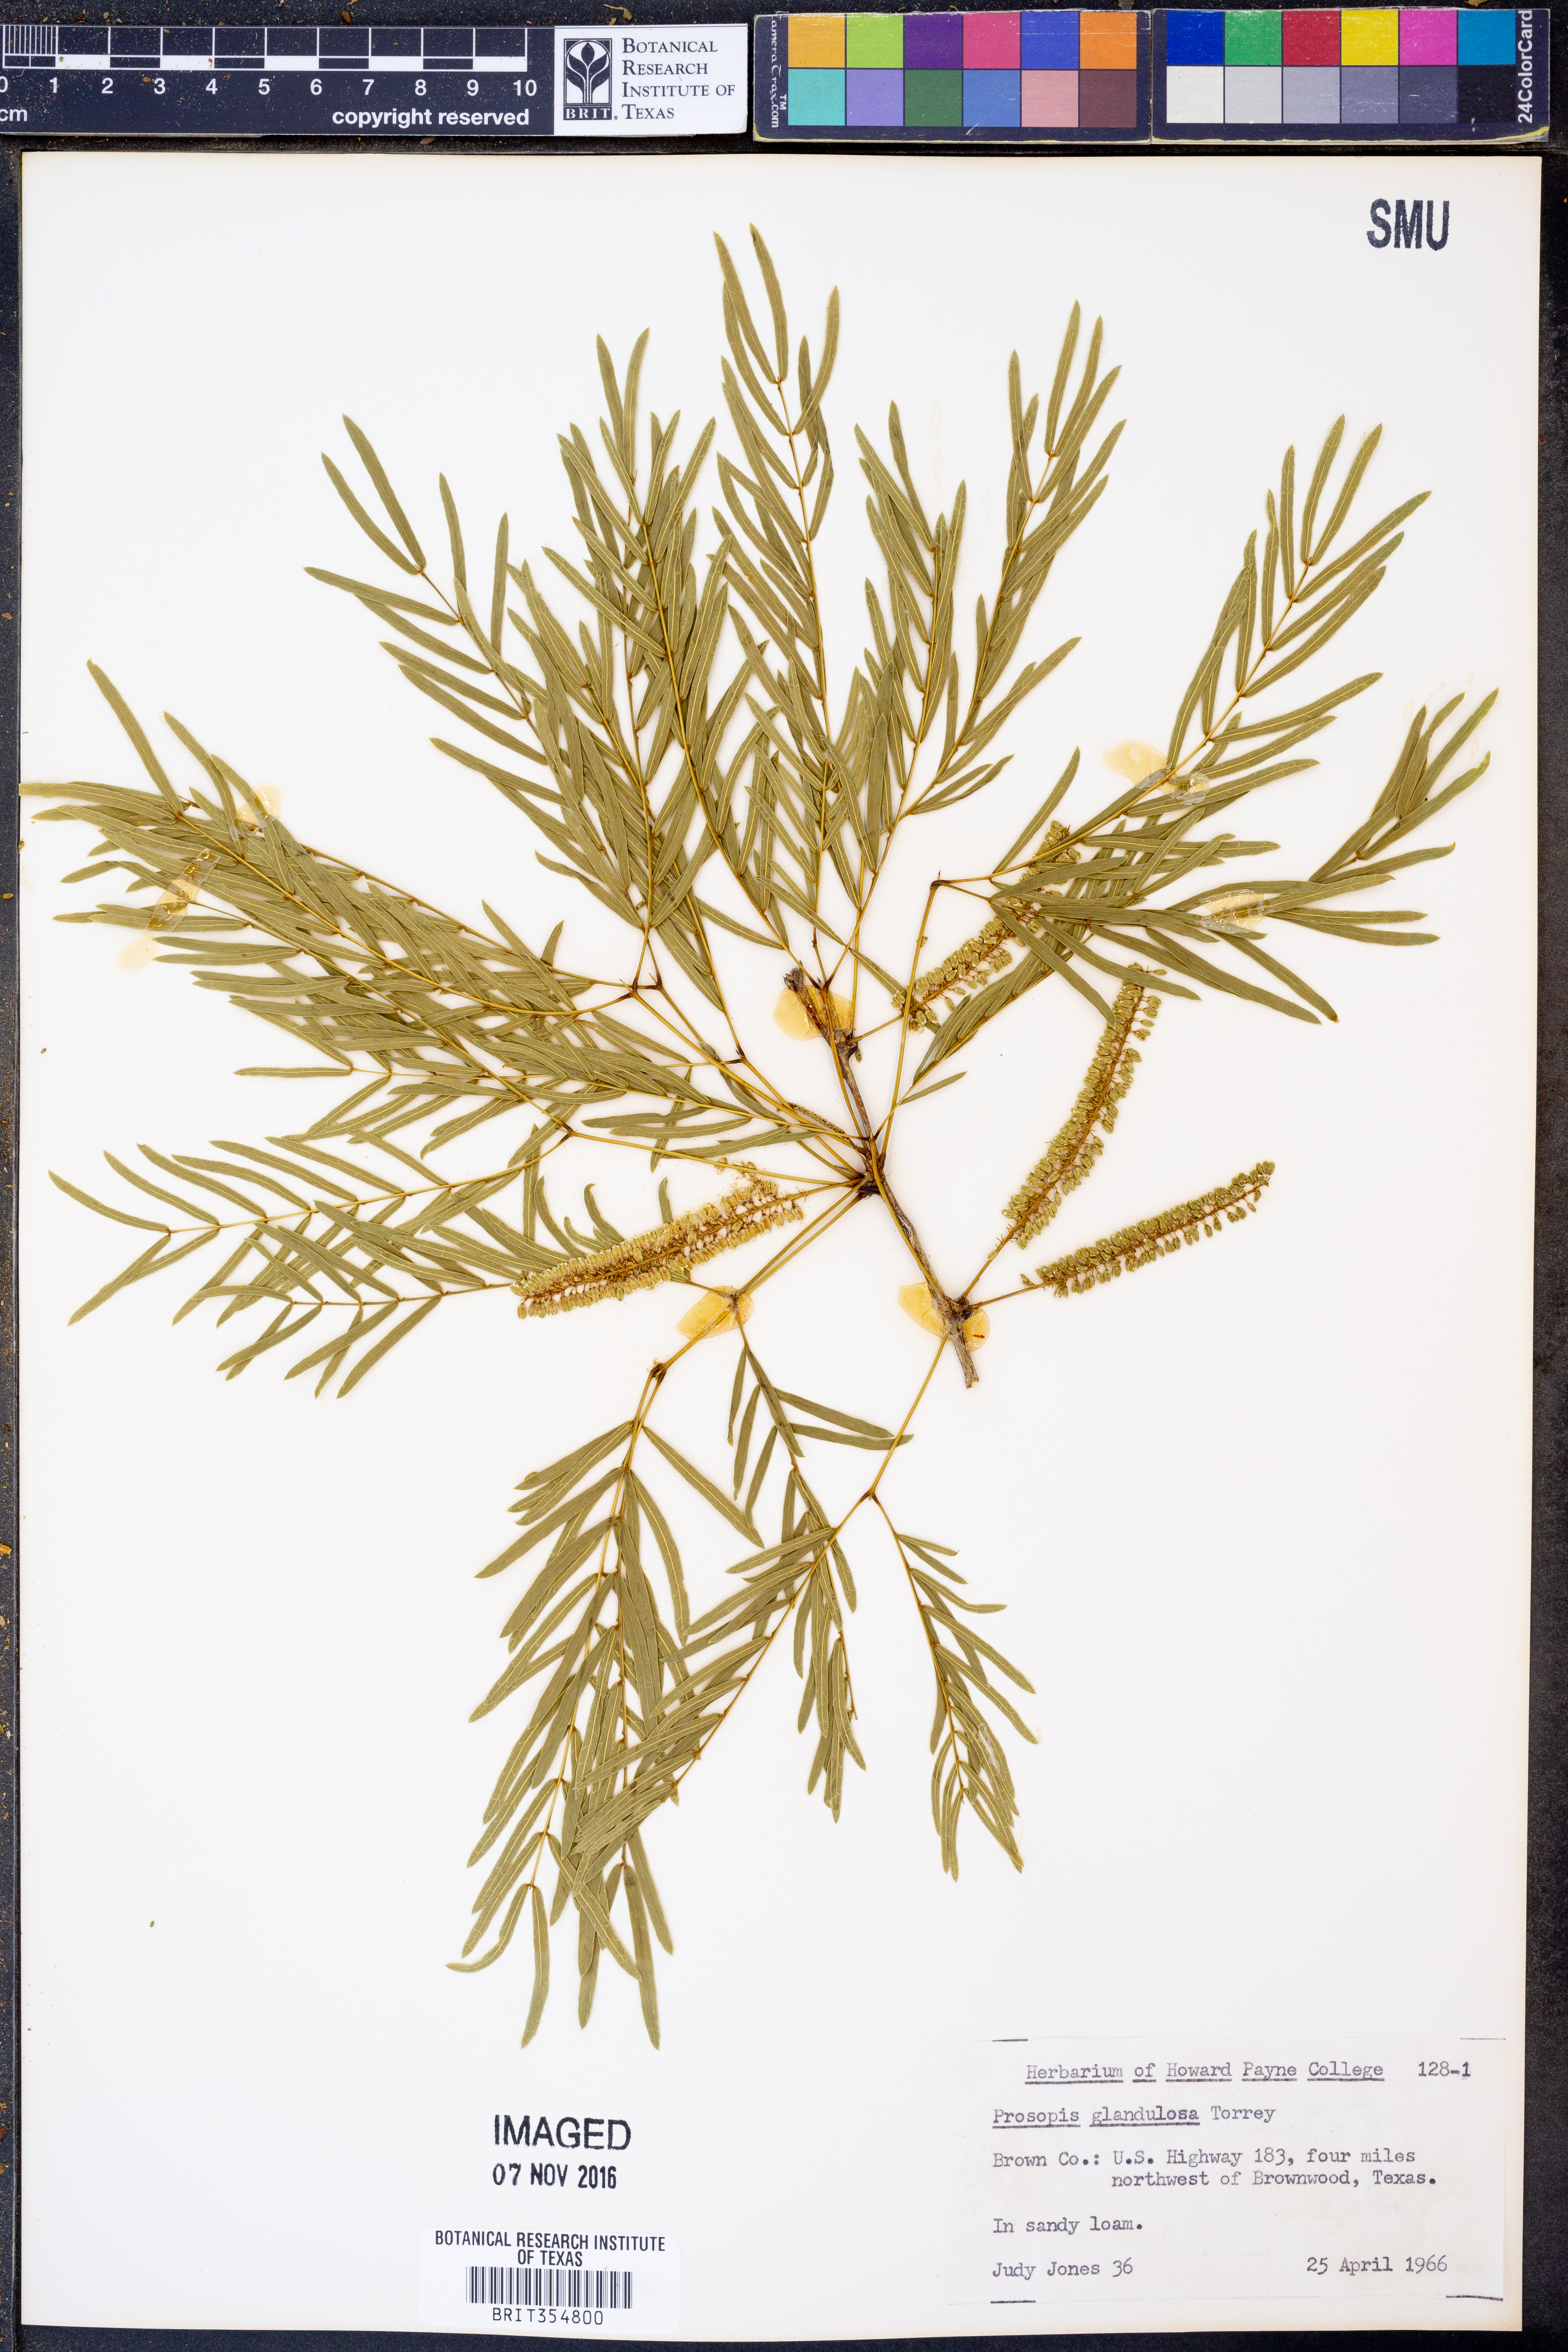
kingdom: Plantae
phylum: Tracheophyta
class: Magnoliopsida
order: Fabales
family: Fabaceae
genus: Prosopis
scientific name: Prosopis glandulosa
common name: Honey mesquite
